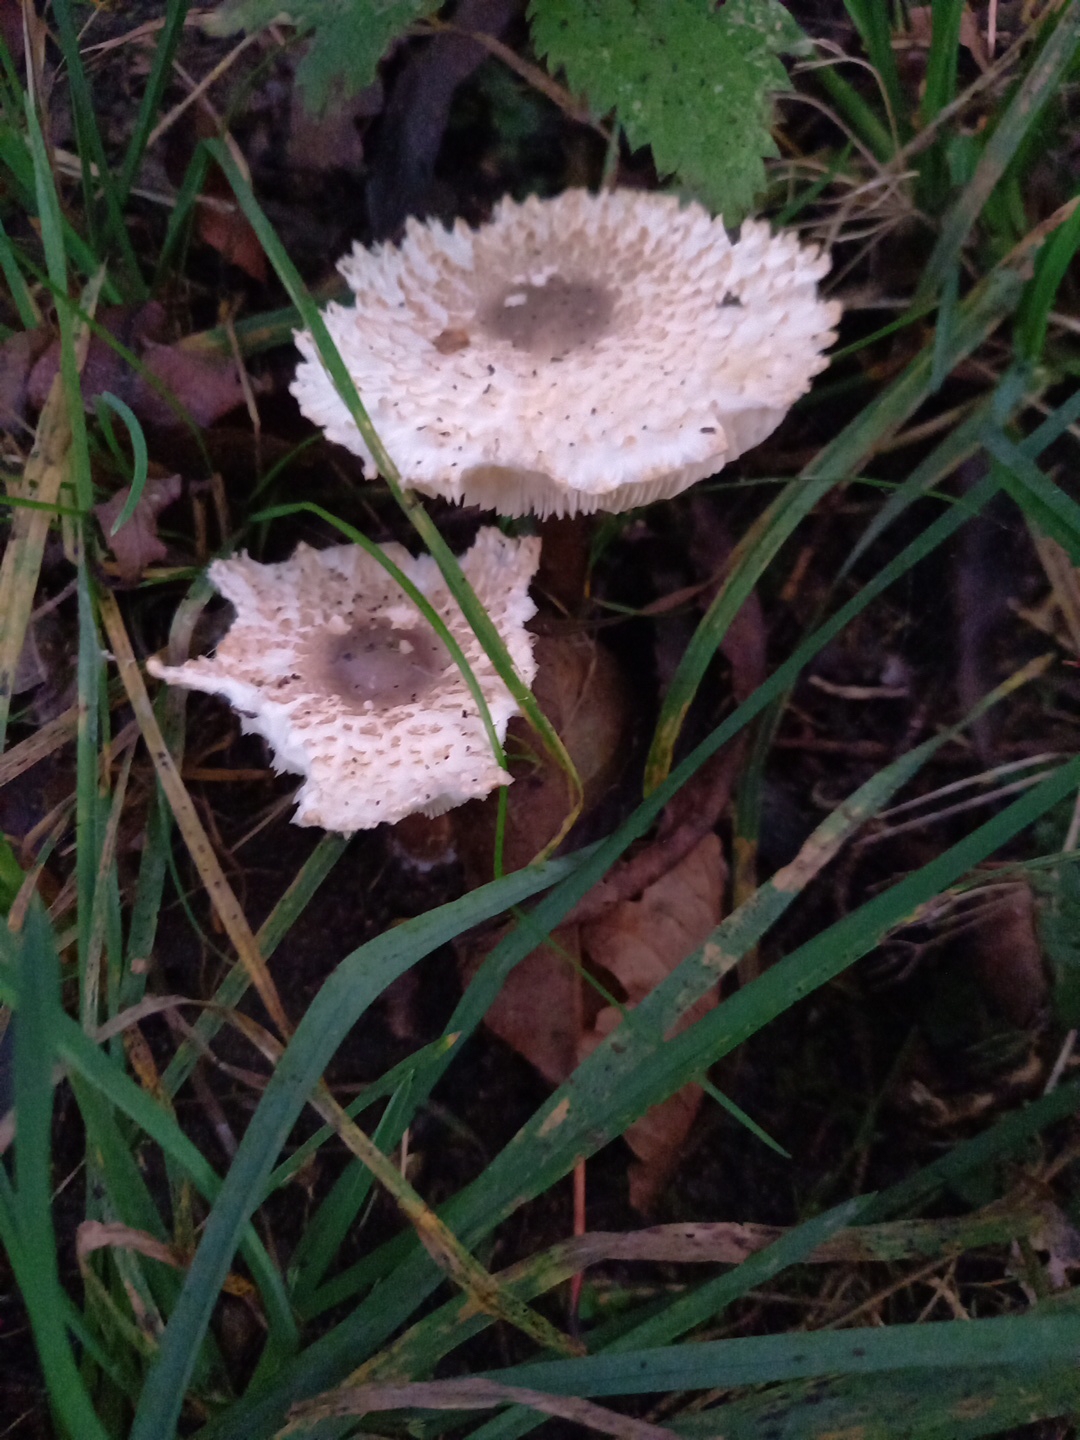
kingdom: Fungi
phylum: Basidiomycota
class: Agaricomycetes
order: Agaricales
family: Agaricaceae
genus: Leucoagaricus
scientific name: Leucoagaricus nympharum
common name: gran-silkehat
